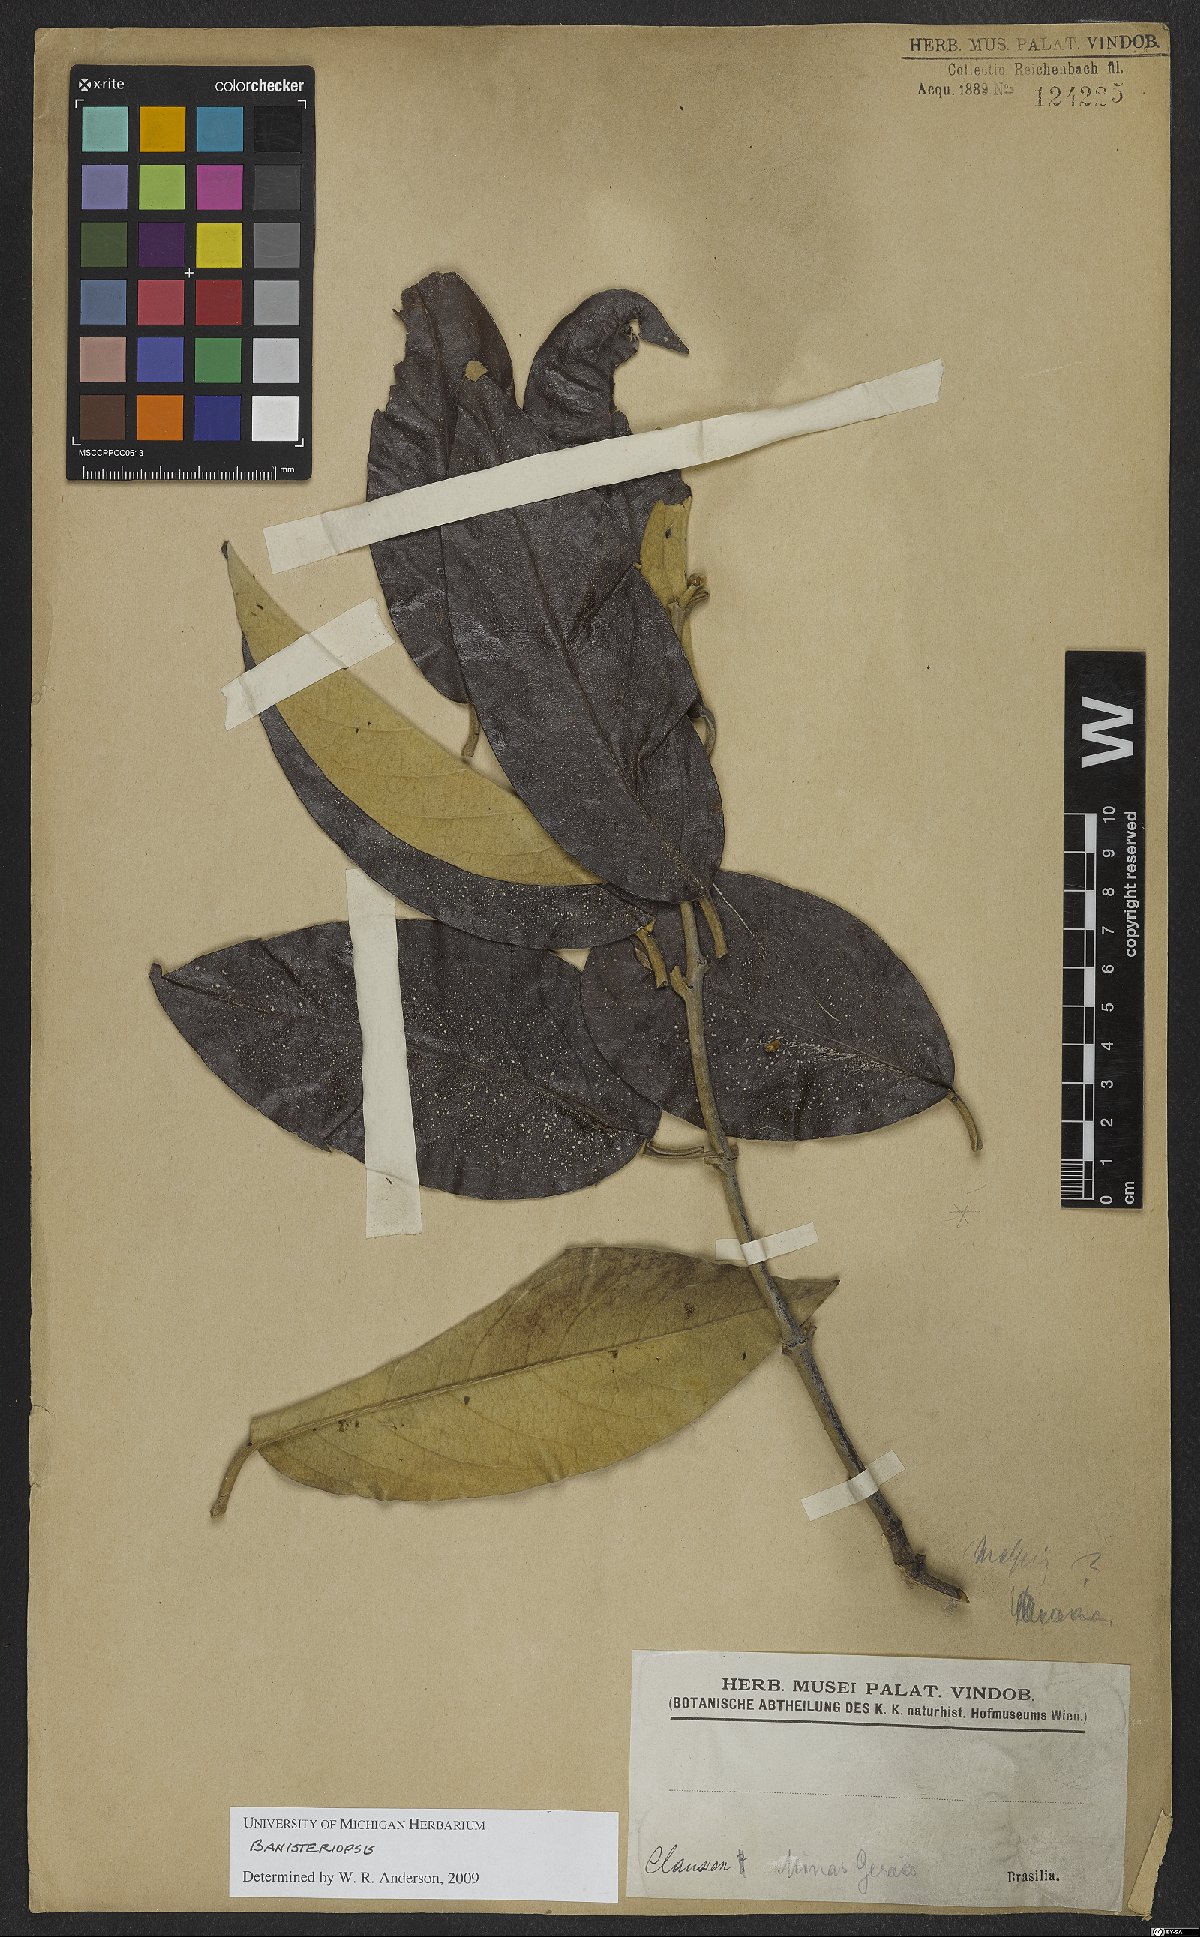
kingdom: Plantae
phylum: Tracheophyta
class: Magnoliopsida
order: Malpighiales
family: Malpighiaceae
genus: Banisteriopsis
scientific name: Banisteriopsis
